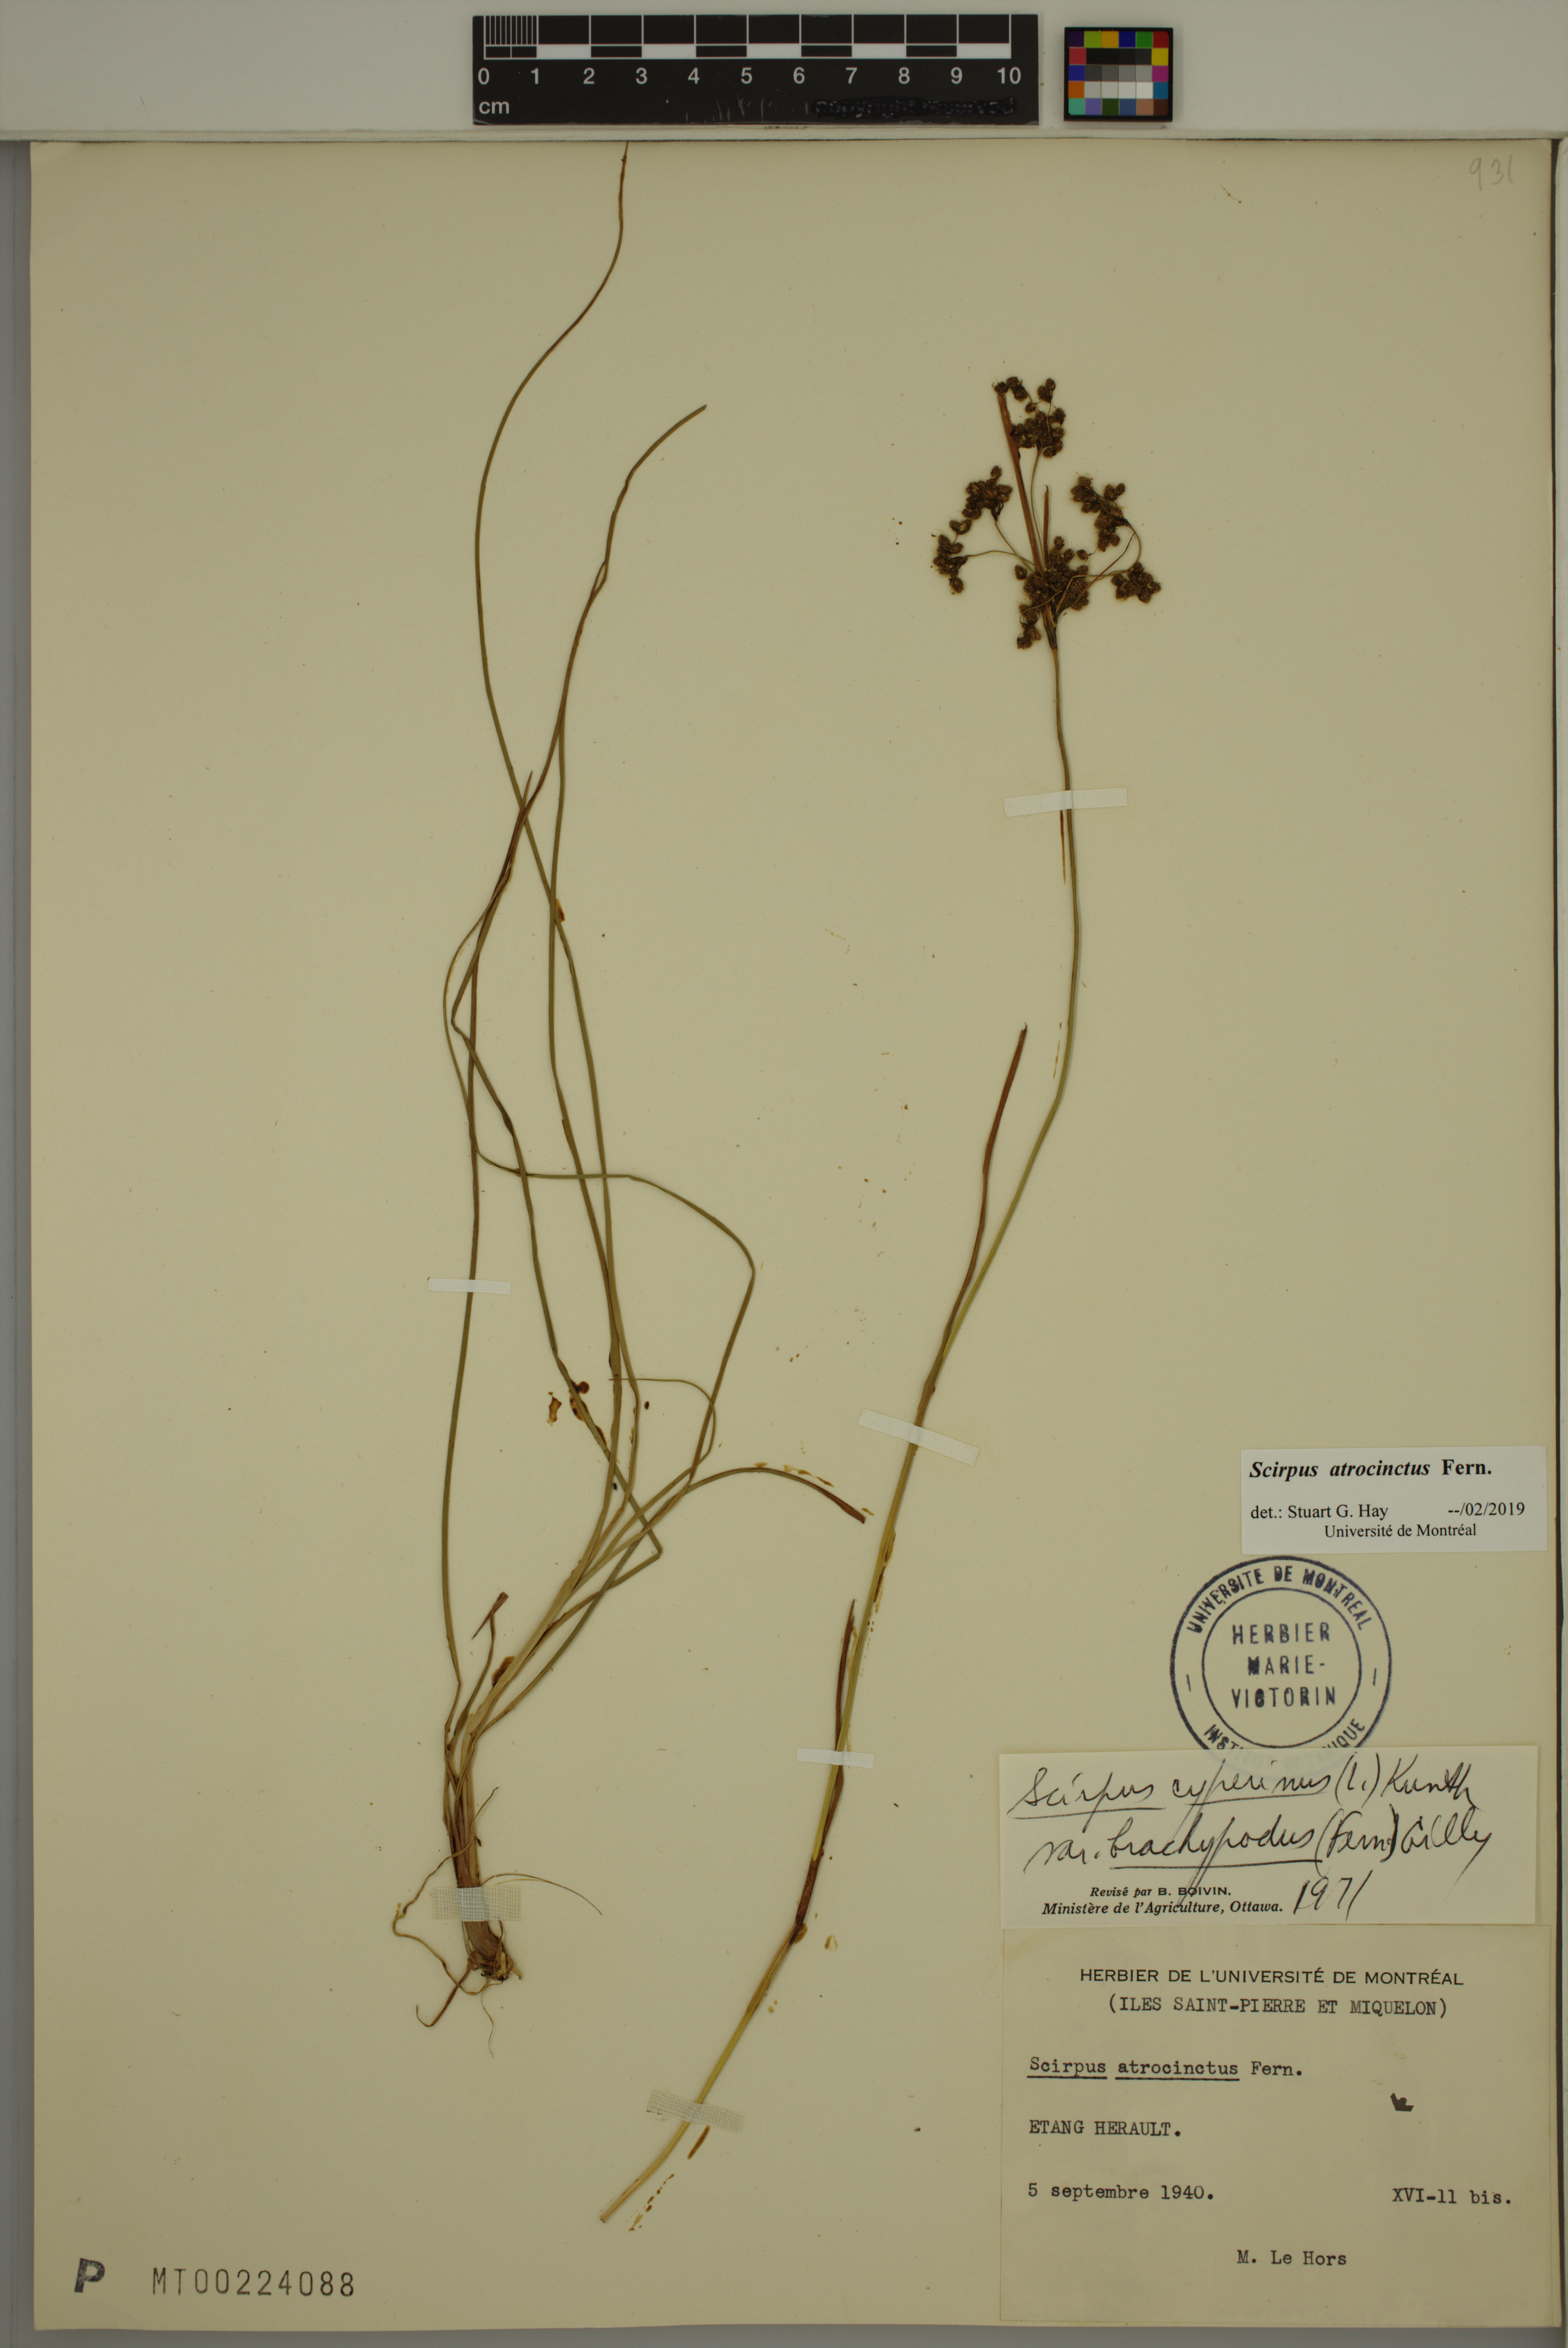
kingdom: Plantae
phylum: Tracheophyta
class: Liliopsida
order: Poales
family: Cyperaceae
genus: Scirpus
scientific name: Scirpus atrocinctus
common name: Black-girdled bulrush
